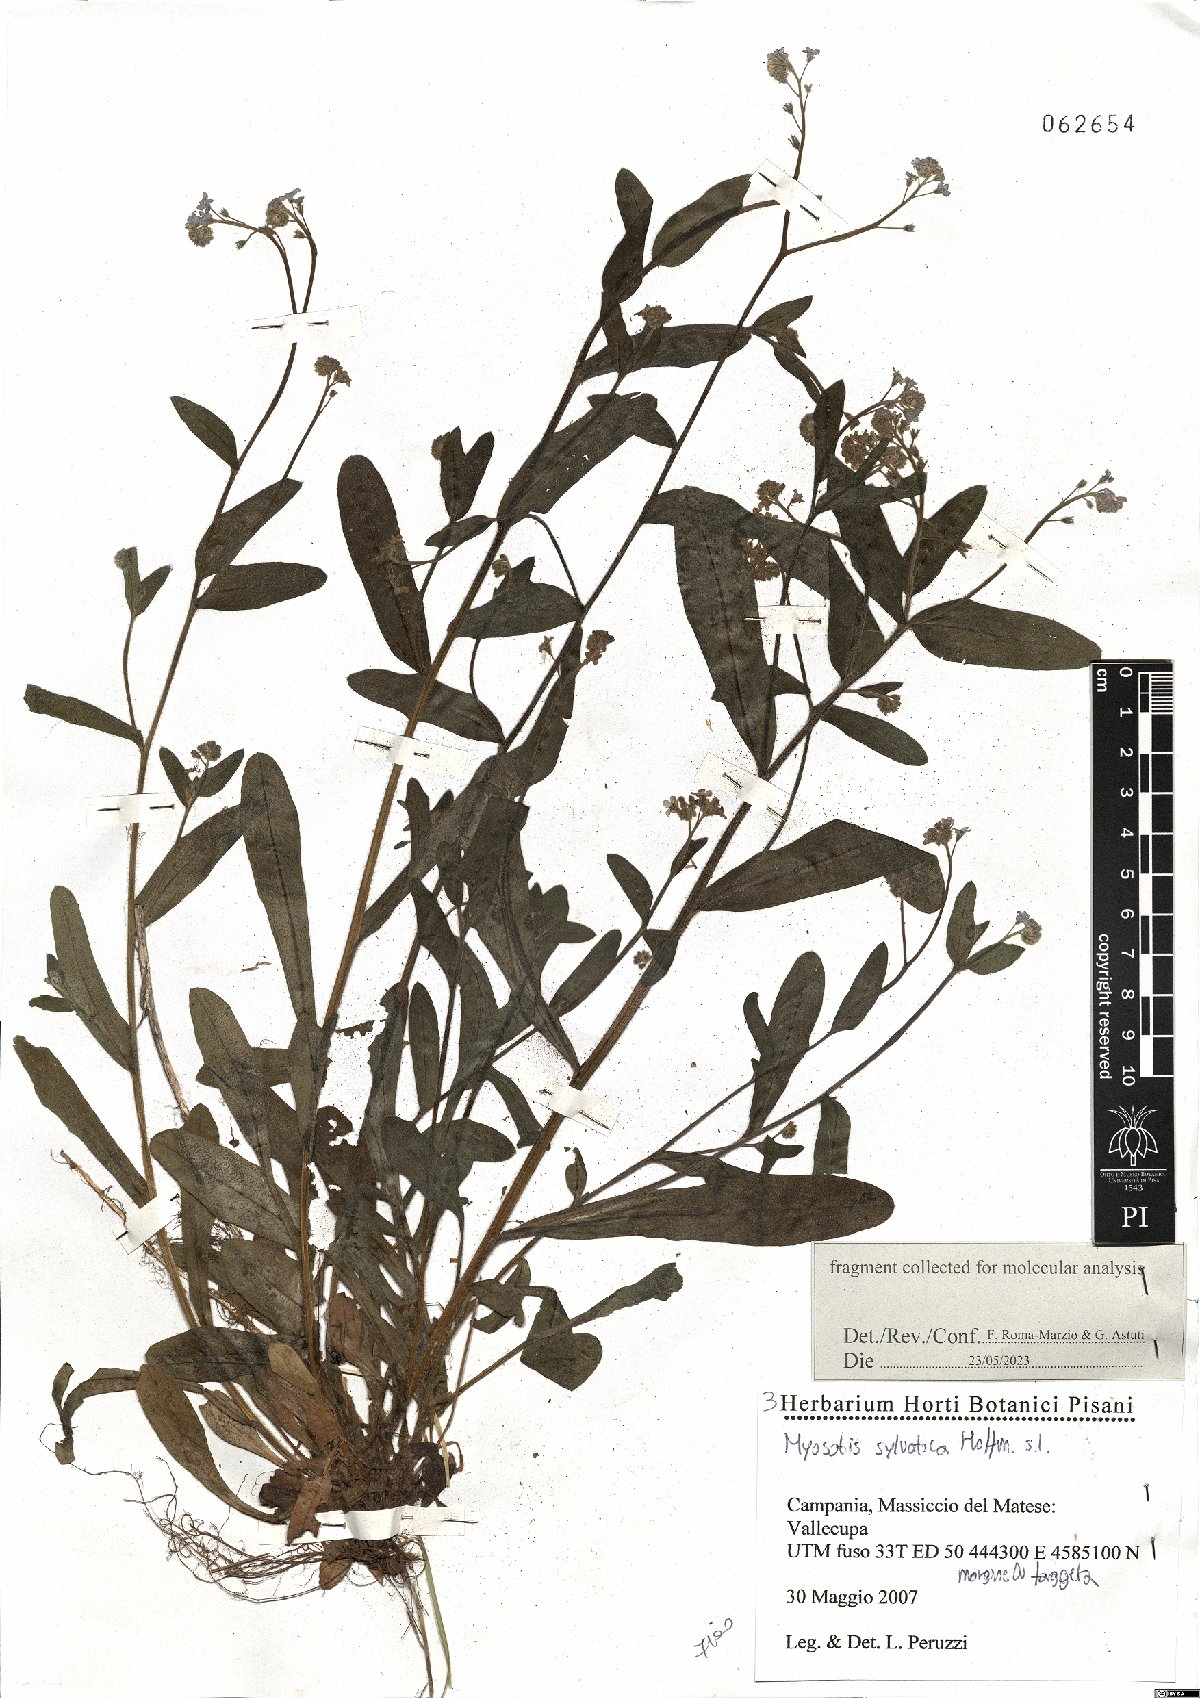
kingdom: Plantae
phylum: Tracheophyta
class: Magnoliopsida
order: Boraginales
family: Boraginaceae
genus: Myosotis
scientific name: Myosotis sylvatica
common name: Wood forget-me-not
